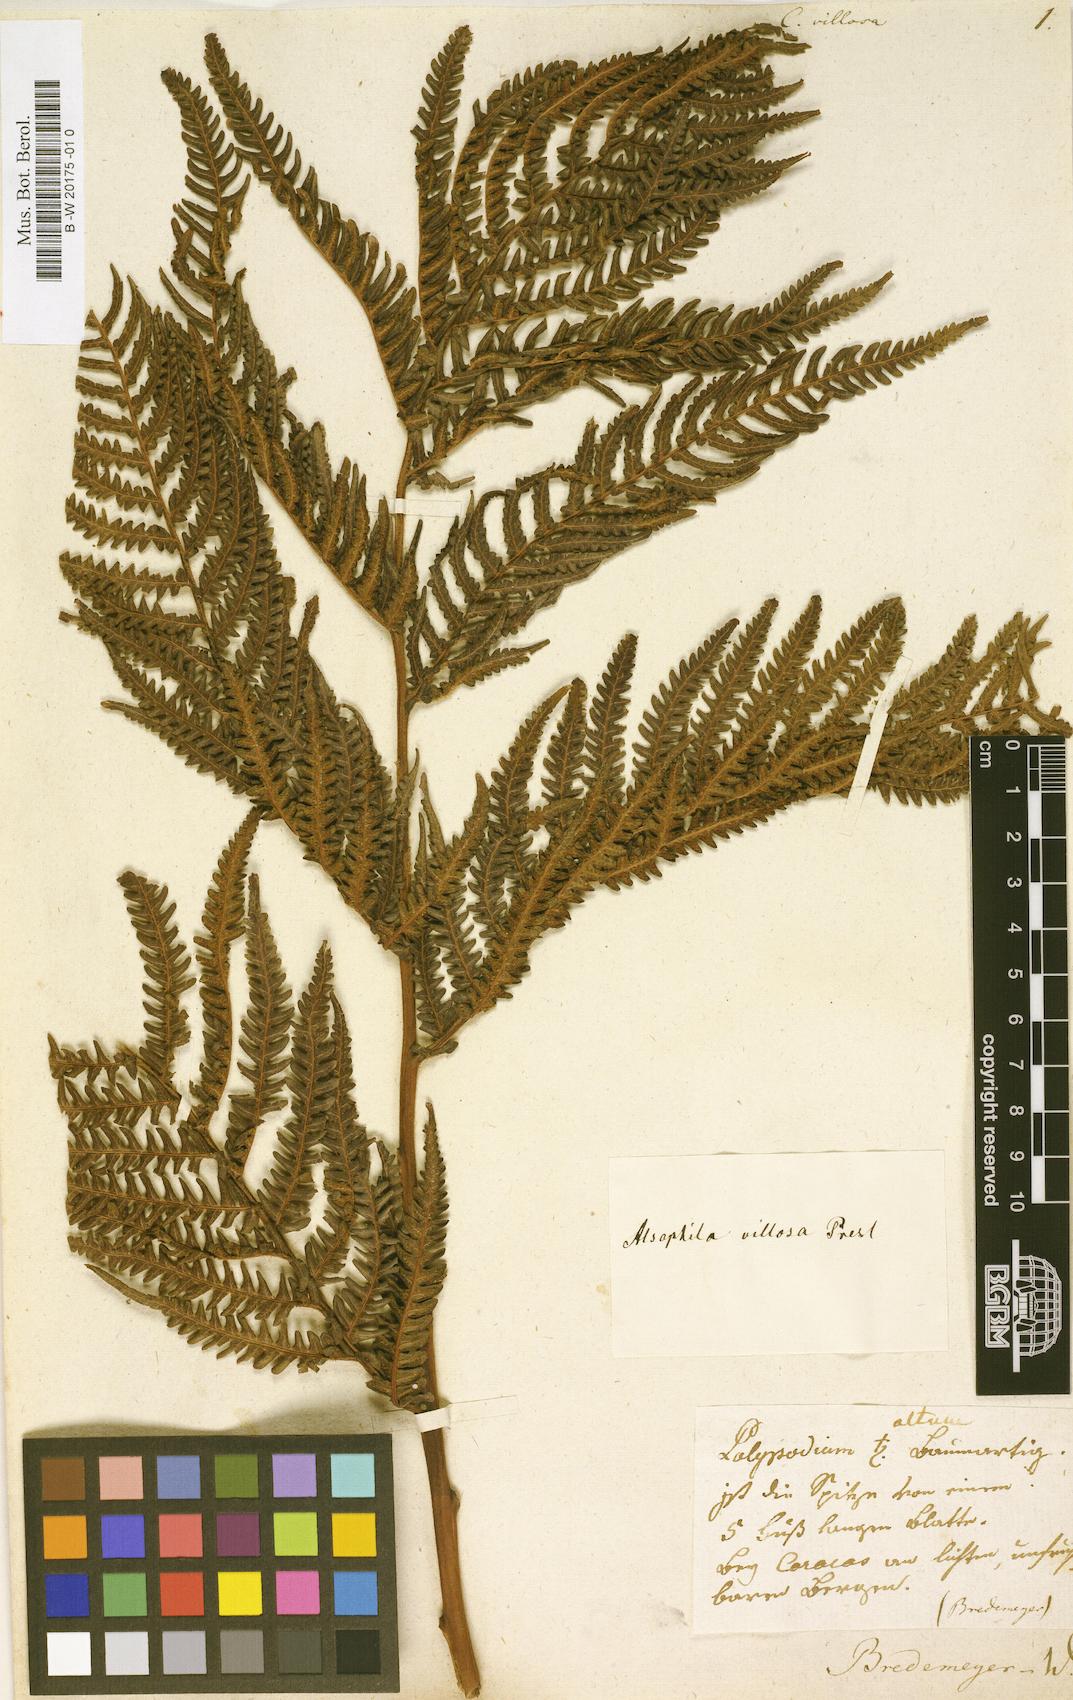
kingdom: Plantae
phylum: Tracheophyta
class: Polypodiopsida
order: Cyatheales
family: Cyatheaceae
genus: Cyathea
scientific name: Cyathea villosa
